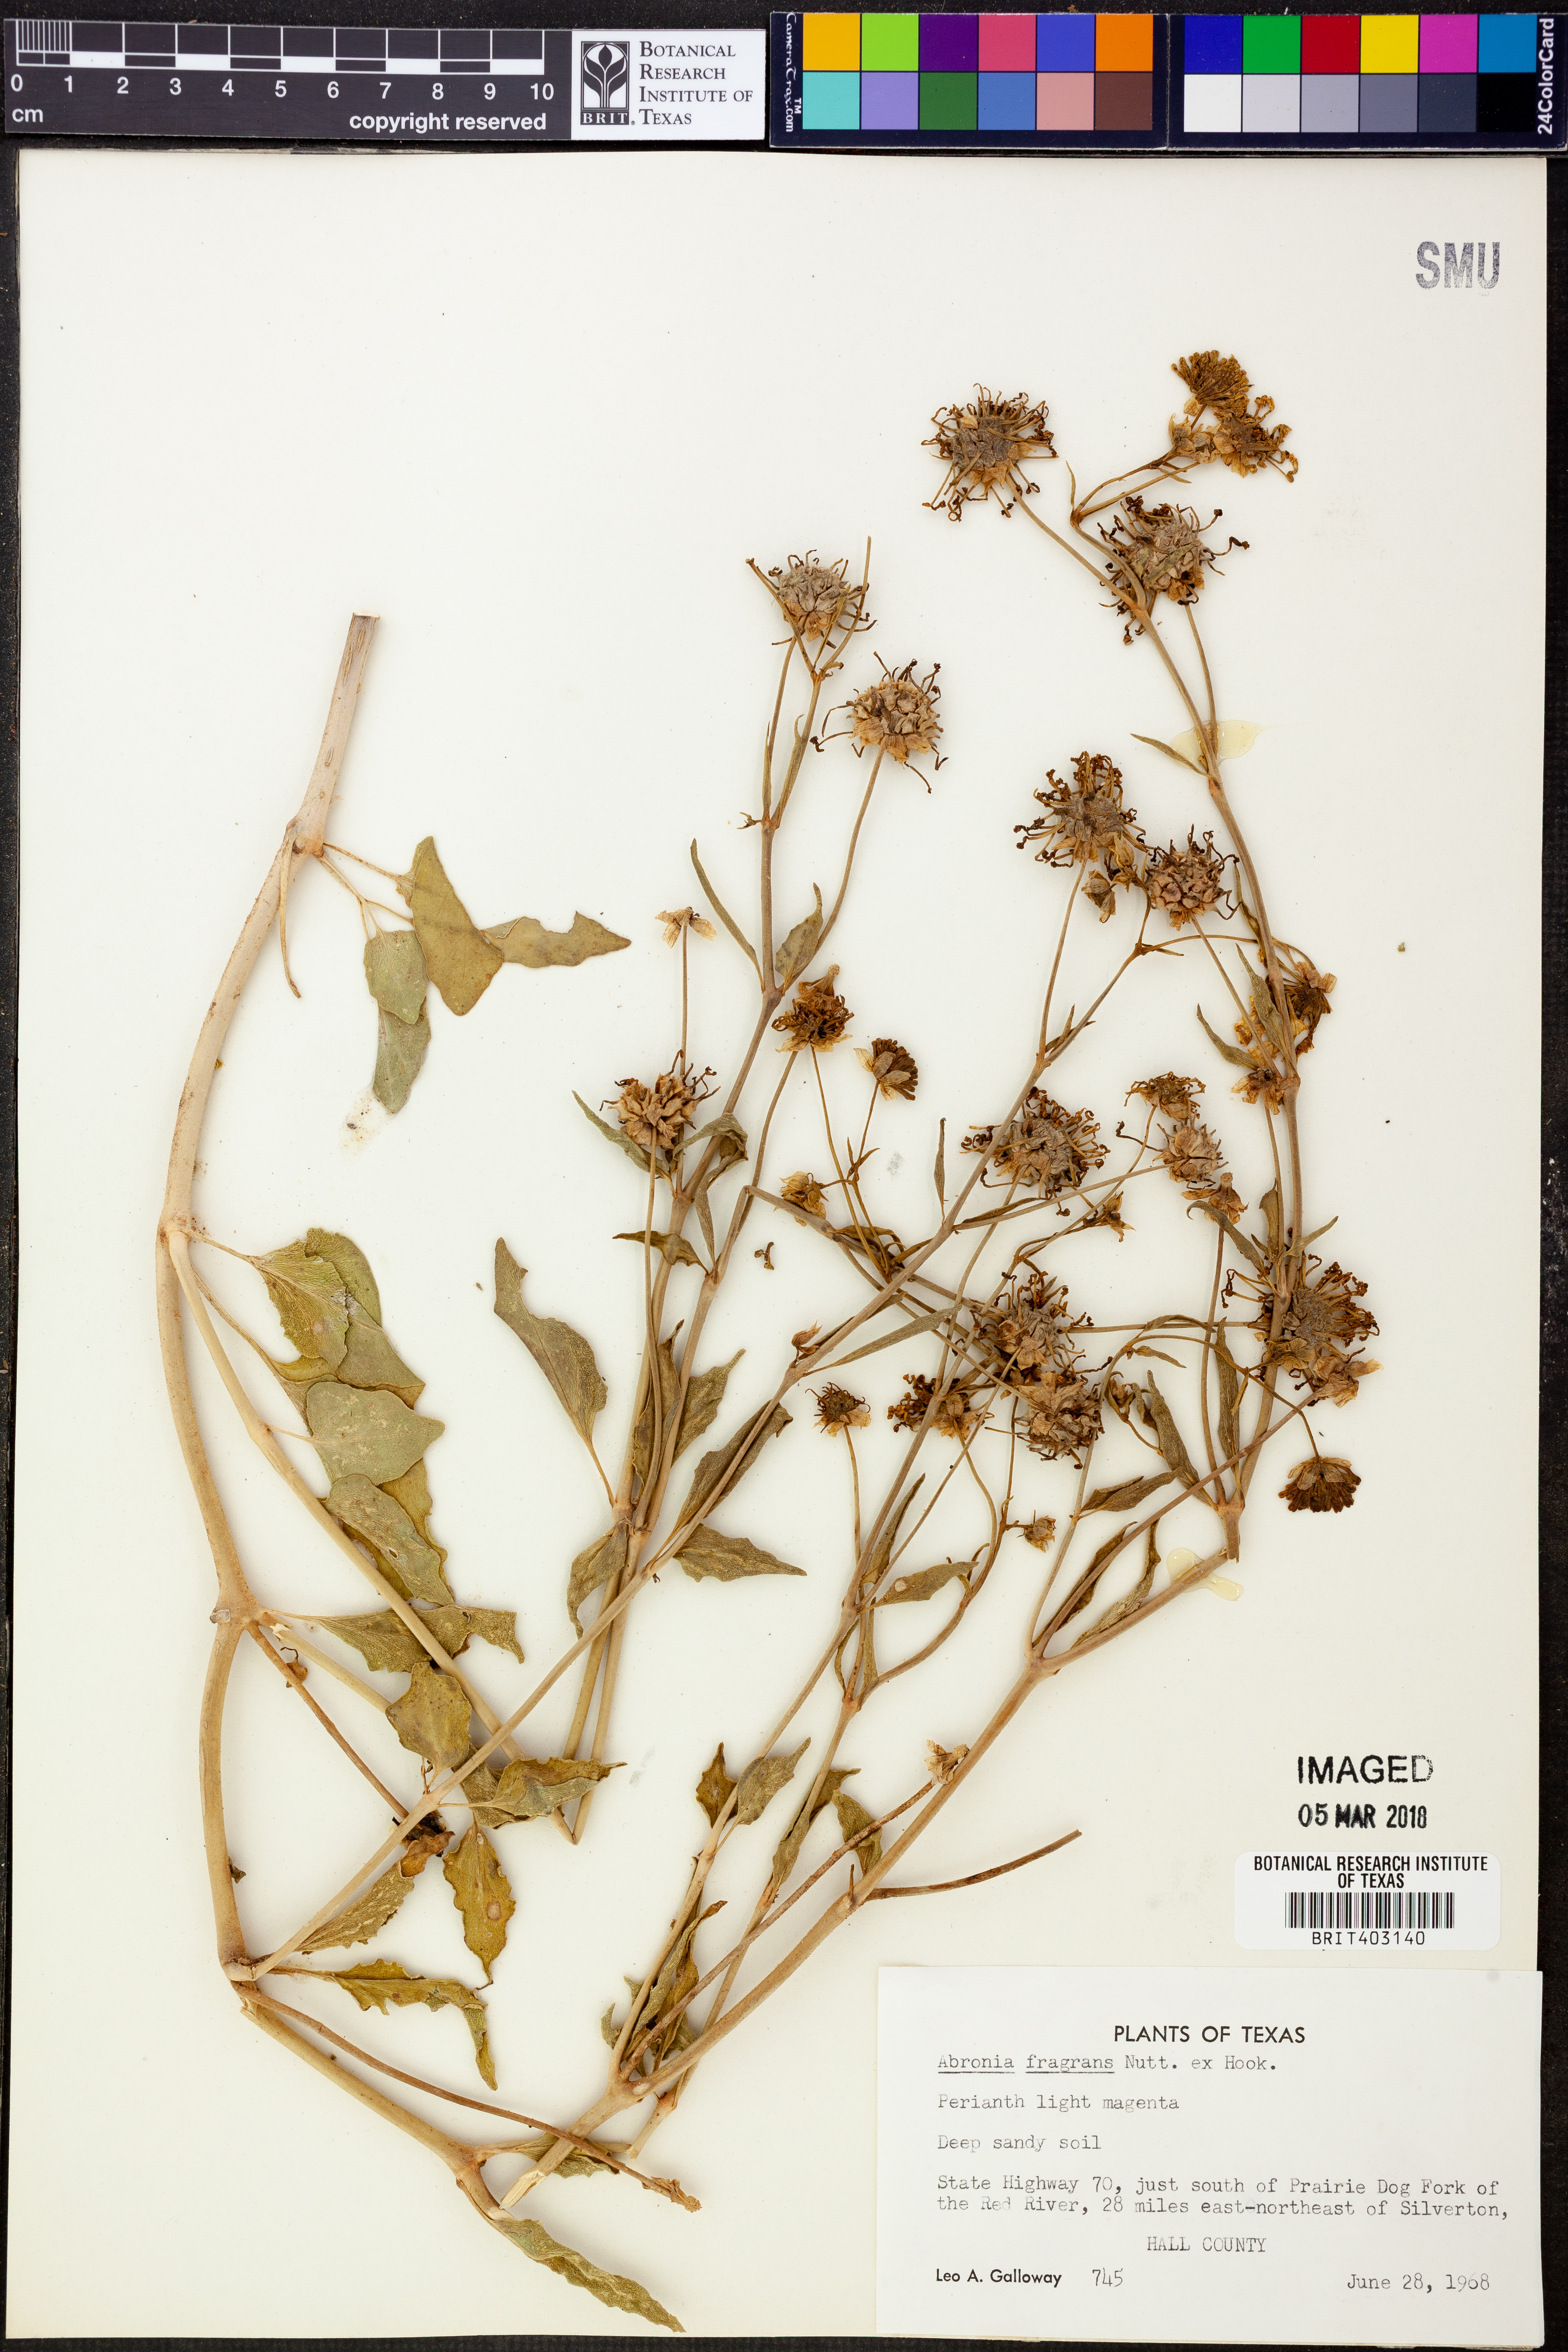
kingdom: Plantae
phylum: Tracheophyta
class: Magnoliopsida
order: Caryophyllales
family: Nyctaginaceae
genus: Abronia
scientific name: Abronia fragrans
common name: Fragrant sand-verbena
